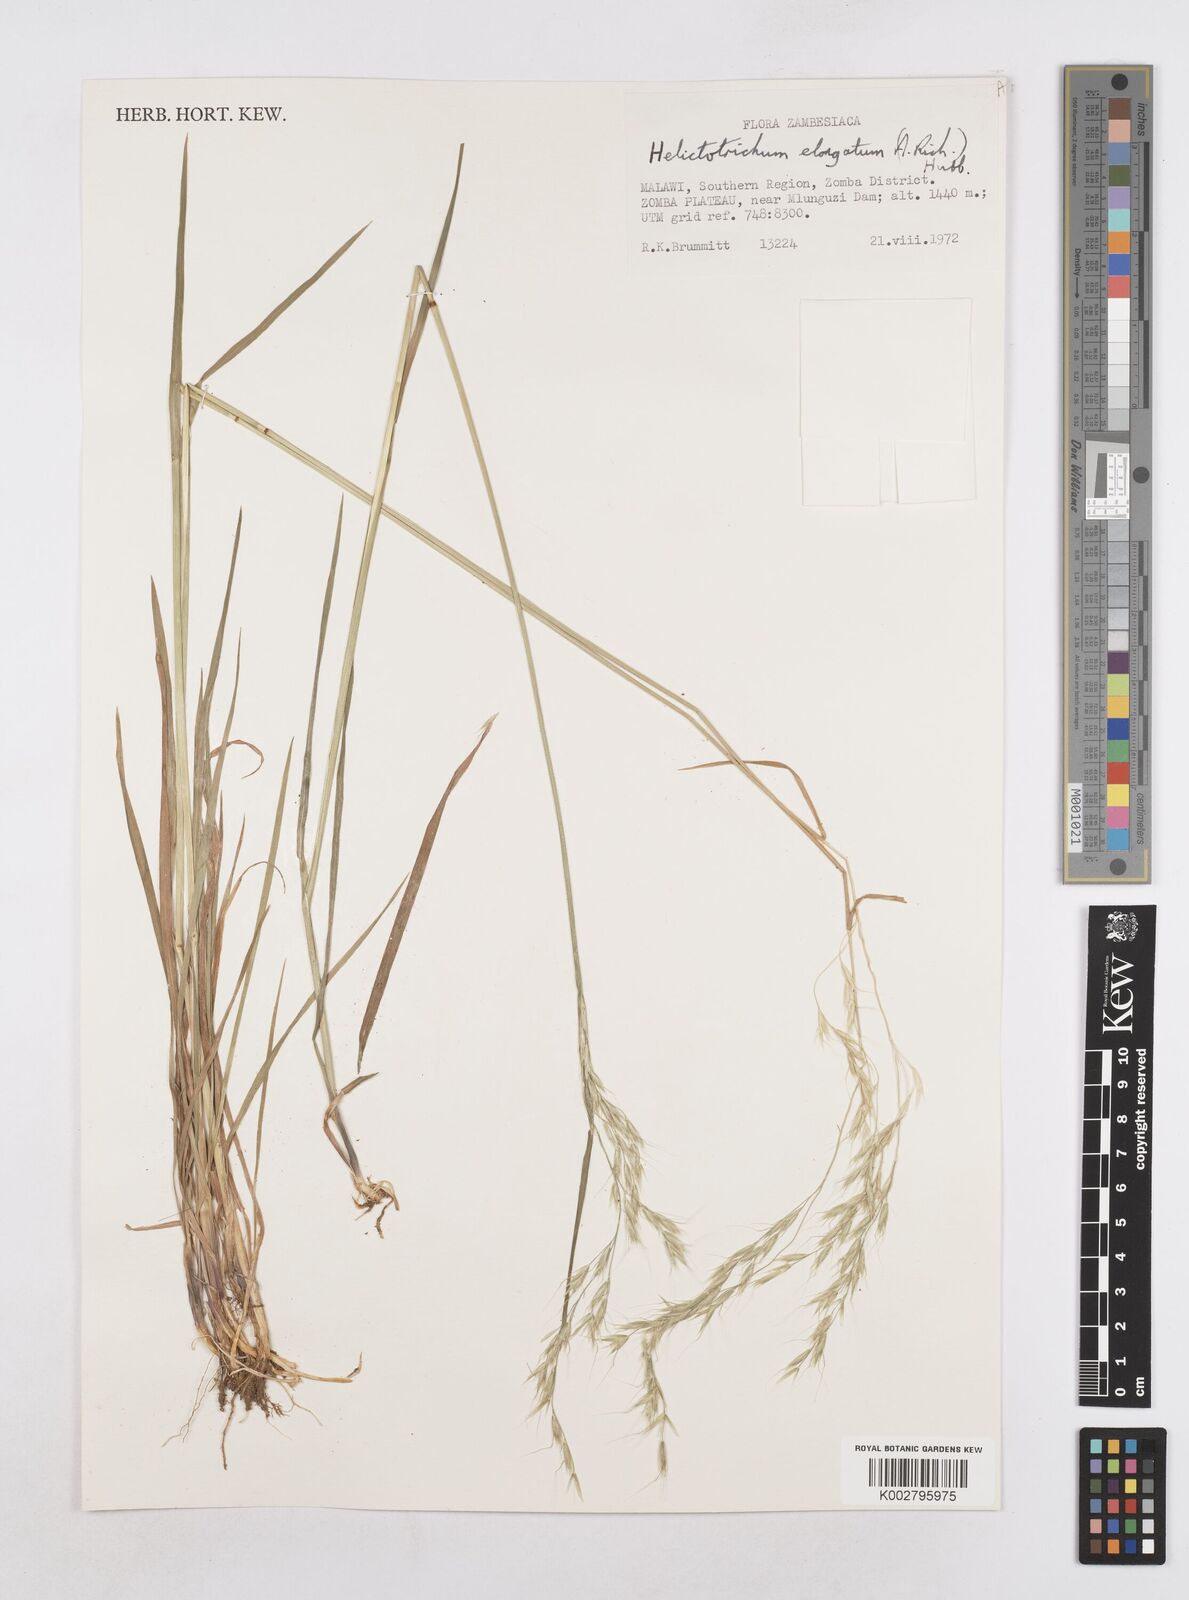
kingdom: Plantae
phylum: Tracheophyta
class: Liliopsida
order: Poales
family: Poaceae
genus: Trisetopsis
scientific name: Trisetopsis elongata
